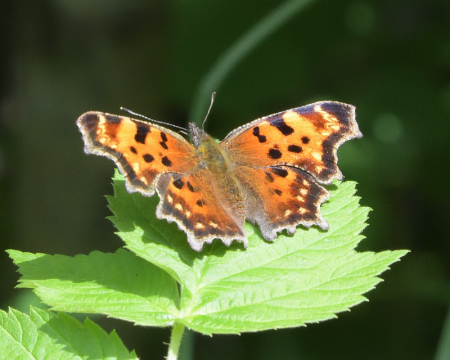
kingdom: Animalia
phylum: Arthropoda
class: Insecta
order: Lepidoptera
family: Nymphalidae
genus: Polygonia
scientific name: Polygonia faunus
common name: Green Comma
